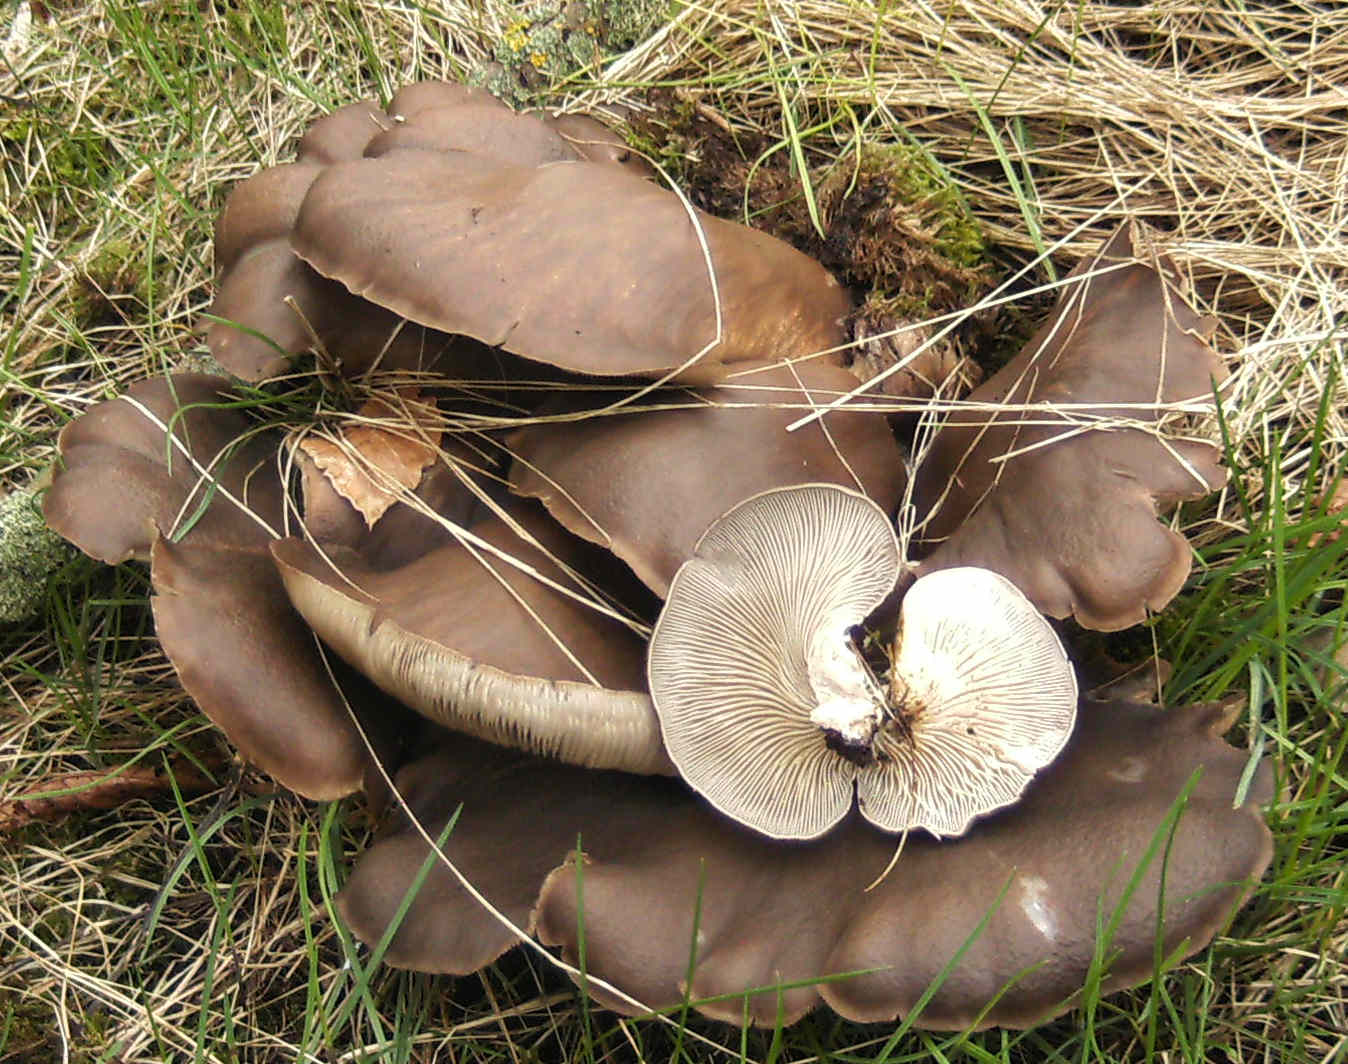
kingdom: Fungi
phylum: Basidiomycota
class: Agaricomycetes
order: Agaricales
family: Pleurotaceae
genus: Pleurotus
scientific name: Pleurotus ostreatus
